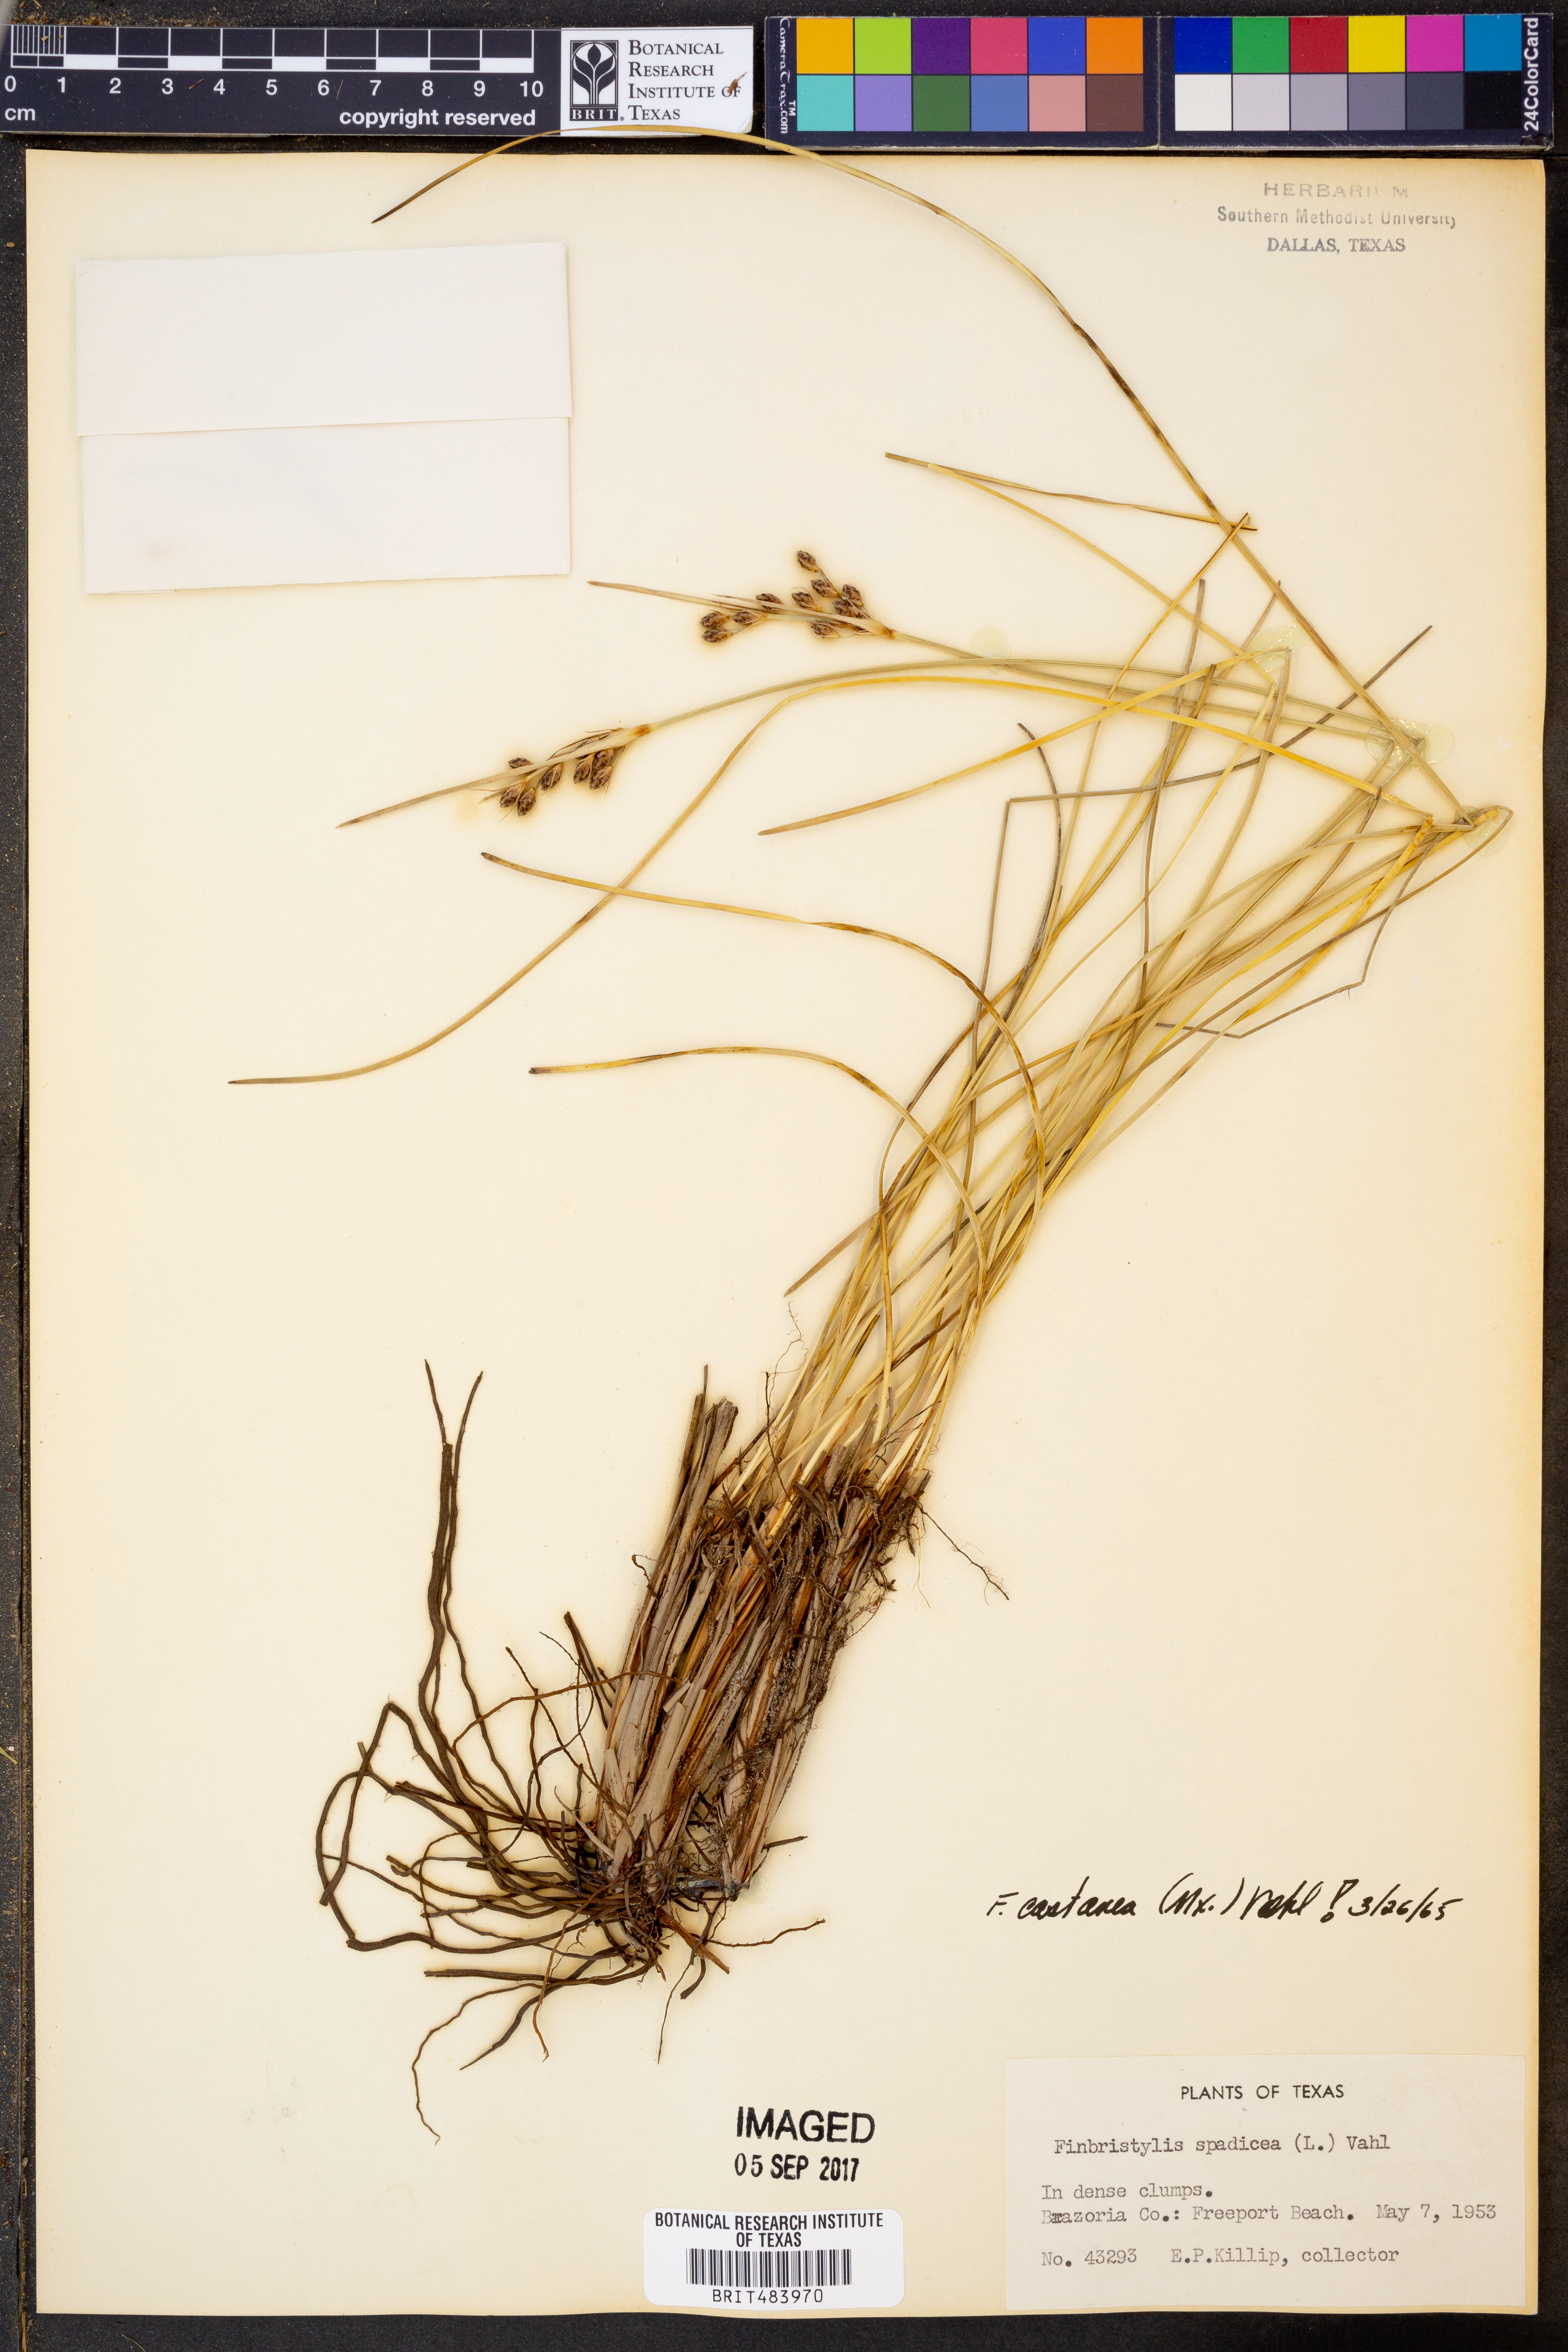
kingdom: Plantae
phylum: Tracheophyta
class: Liliopsida
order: Poales
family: Cyperaceae
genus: Fimbristylis
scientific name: Fimbristylis spadicea
